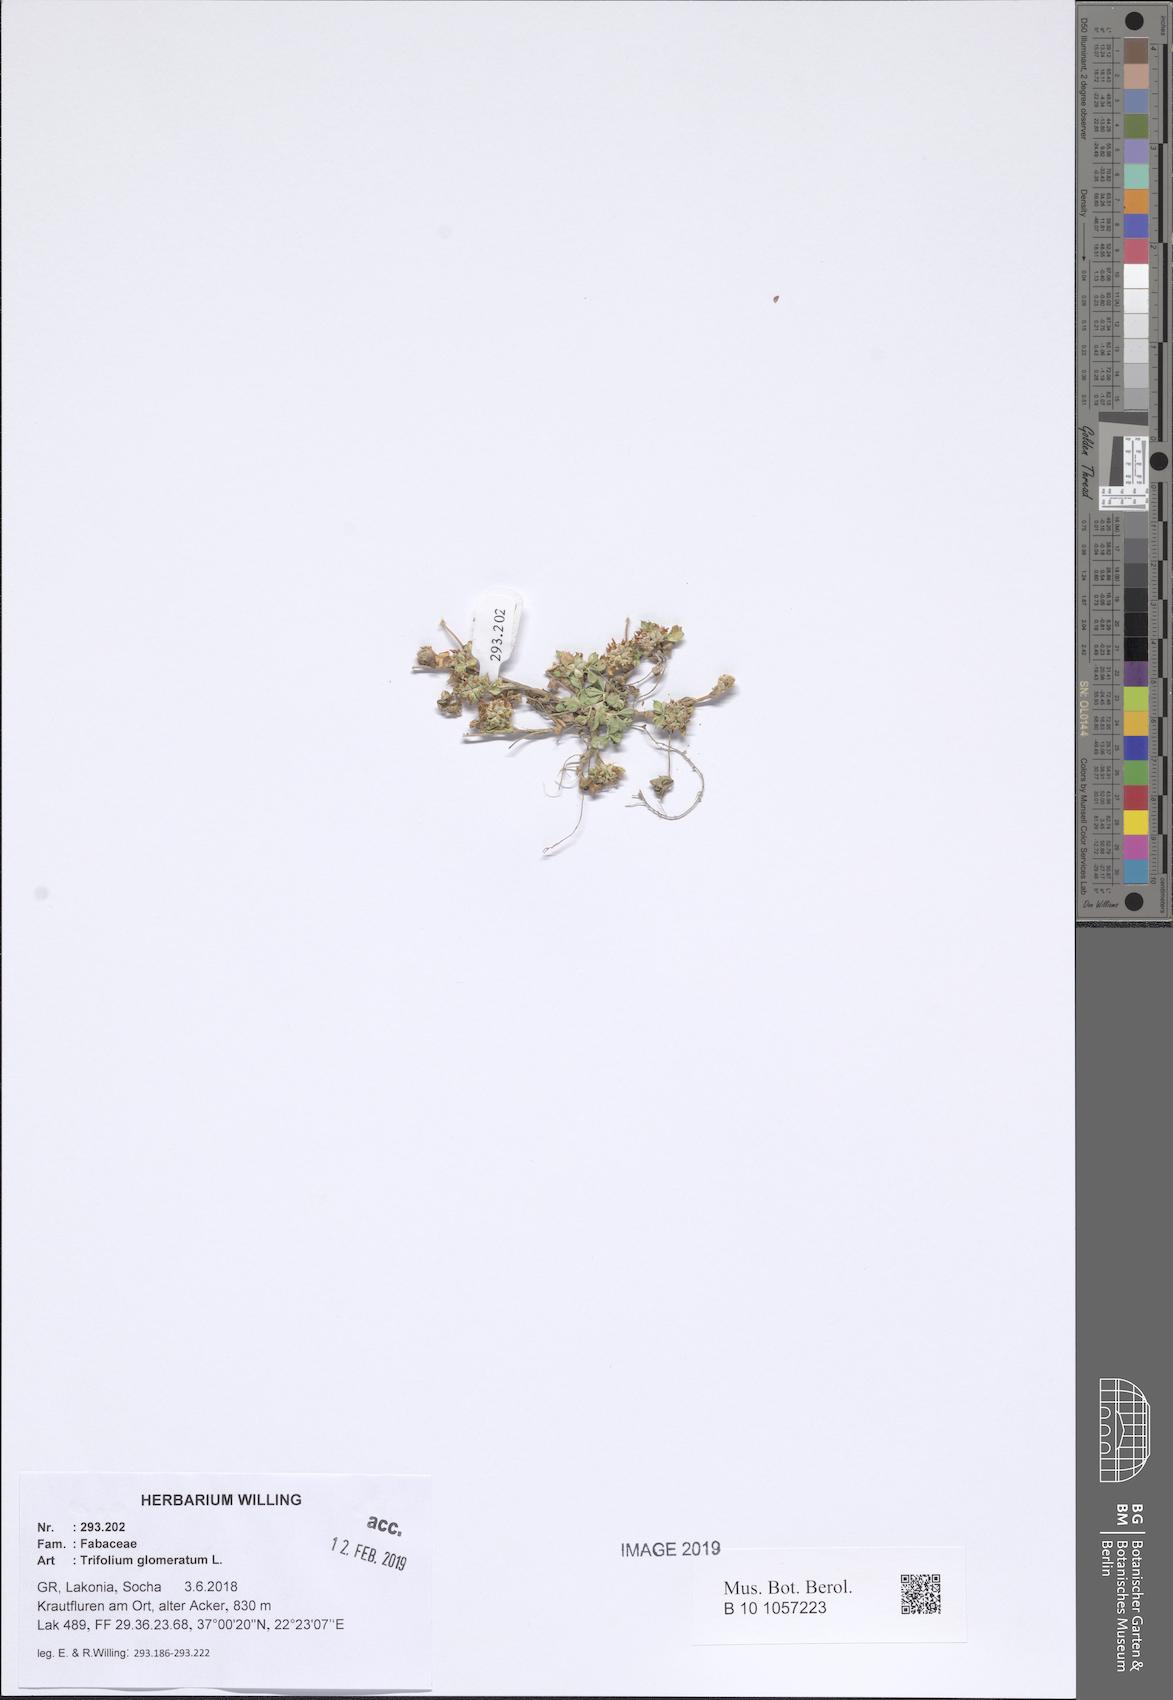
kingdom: Plantae
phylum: Tracheophyta
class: Magnoliopsida
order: Fabales
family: Fabaceae
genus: Trifolium
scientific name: Trifolium glomeratum
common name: Clustered clover
